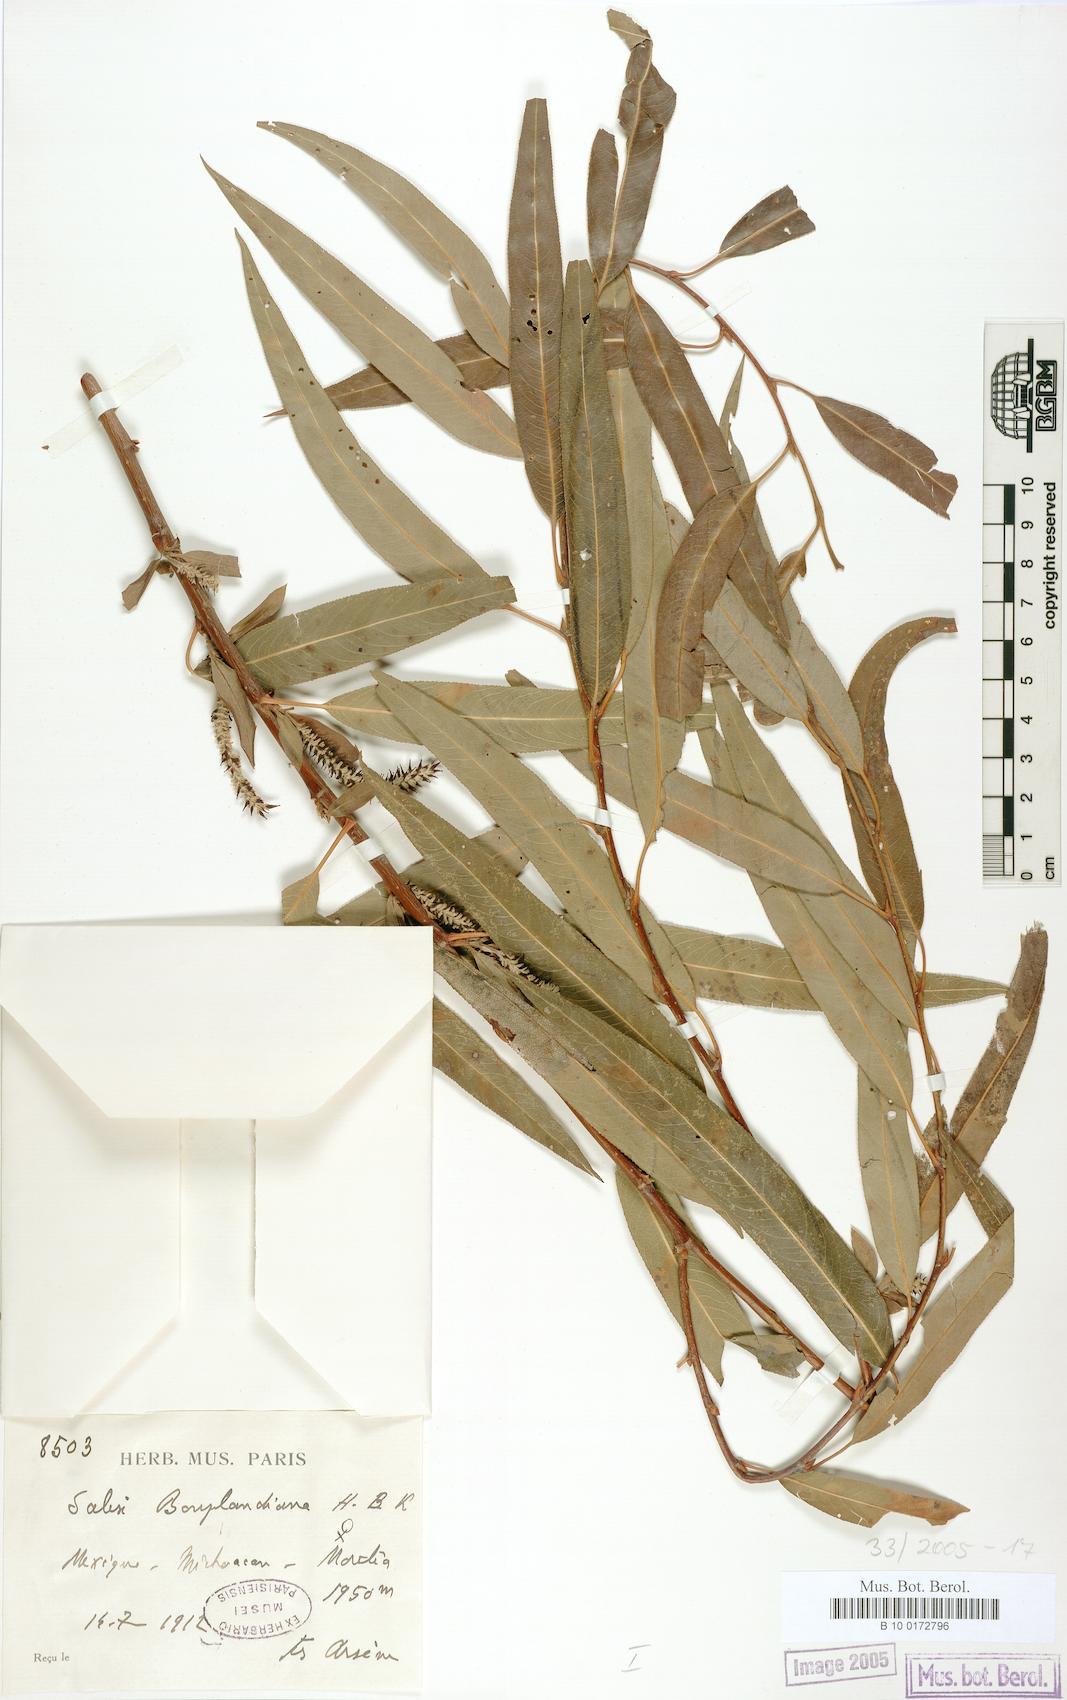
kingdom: Plantae
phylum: Tracheophyta
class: Magnoliopsida
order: Malpighiales
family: Salicaceae
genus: Salix
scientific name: Salix bonplandiana
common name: Bonpland’s willow
